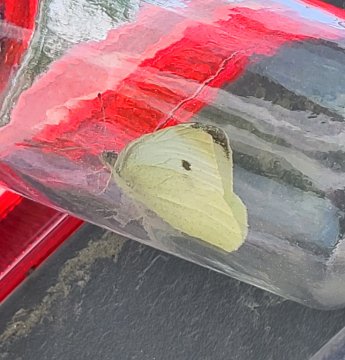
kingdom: Animalia
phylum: Arthropoda
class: Insecta
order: Lepidoptera
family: Pieridae
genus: Pieris
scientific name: Pieris rapae
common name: Cabbage White
